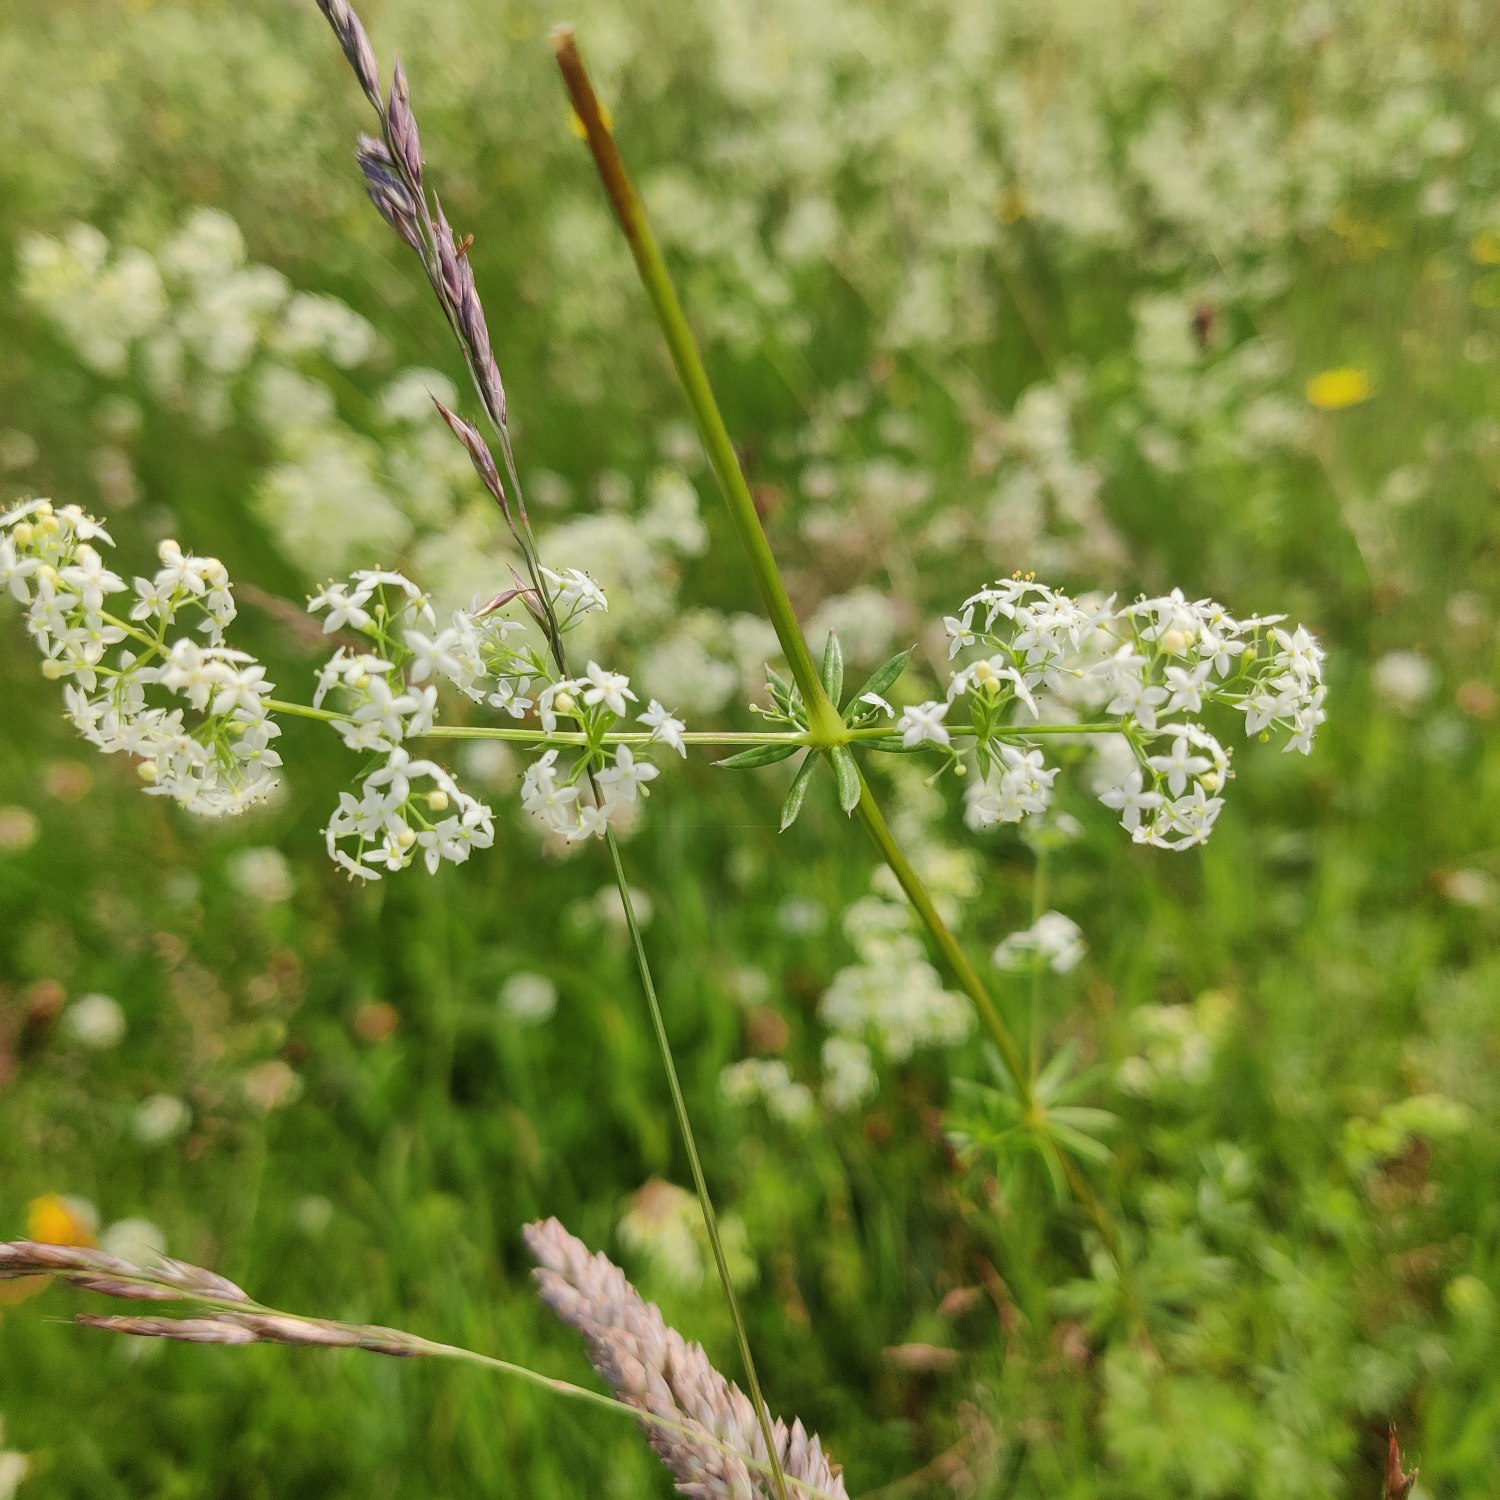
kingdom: Plantae
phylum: Tracheophyta
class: Magnoliopsida
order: Gentianales
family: Rubiaceae
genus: Galium
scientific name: Galium mollugo
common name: Hvid snerre
